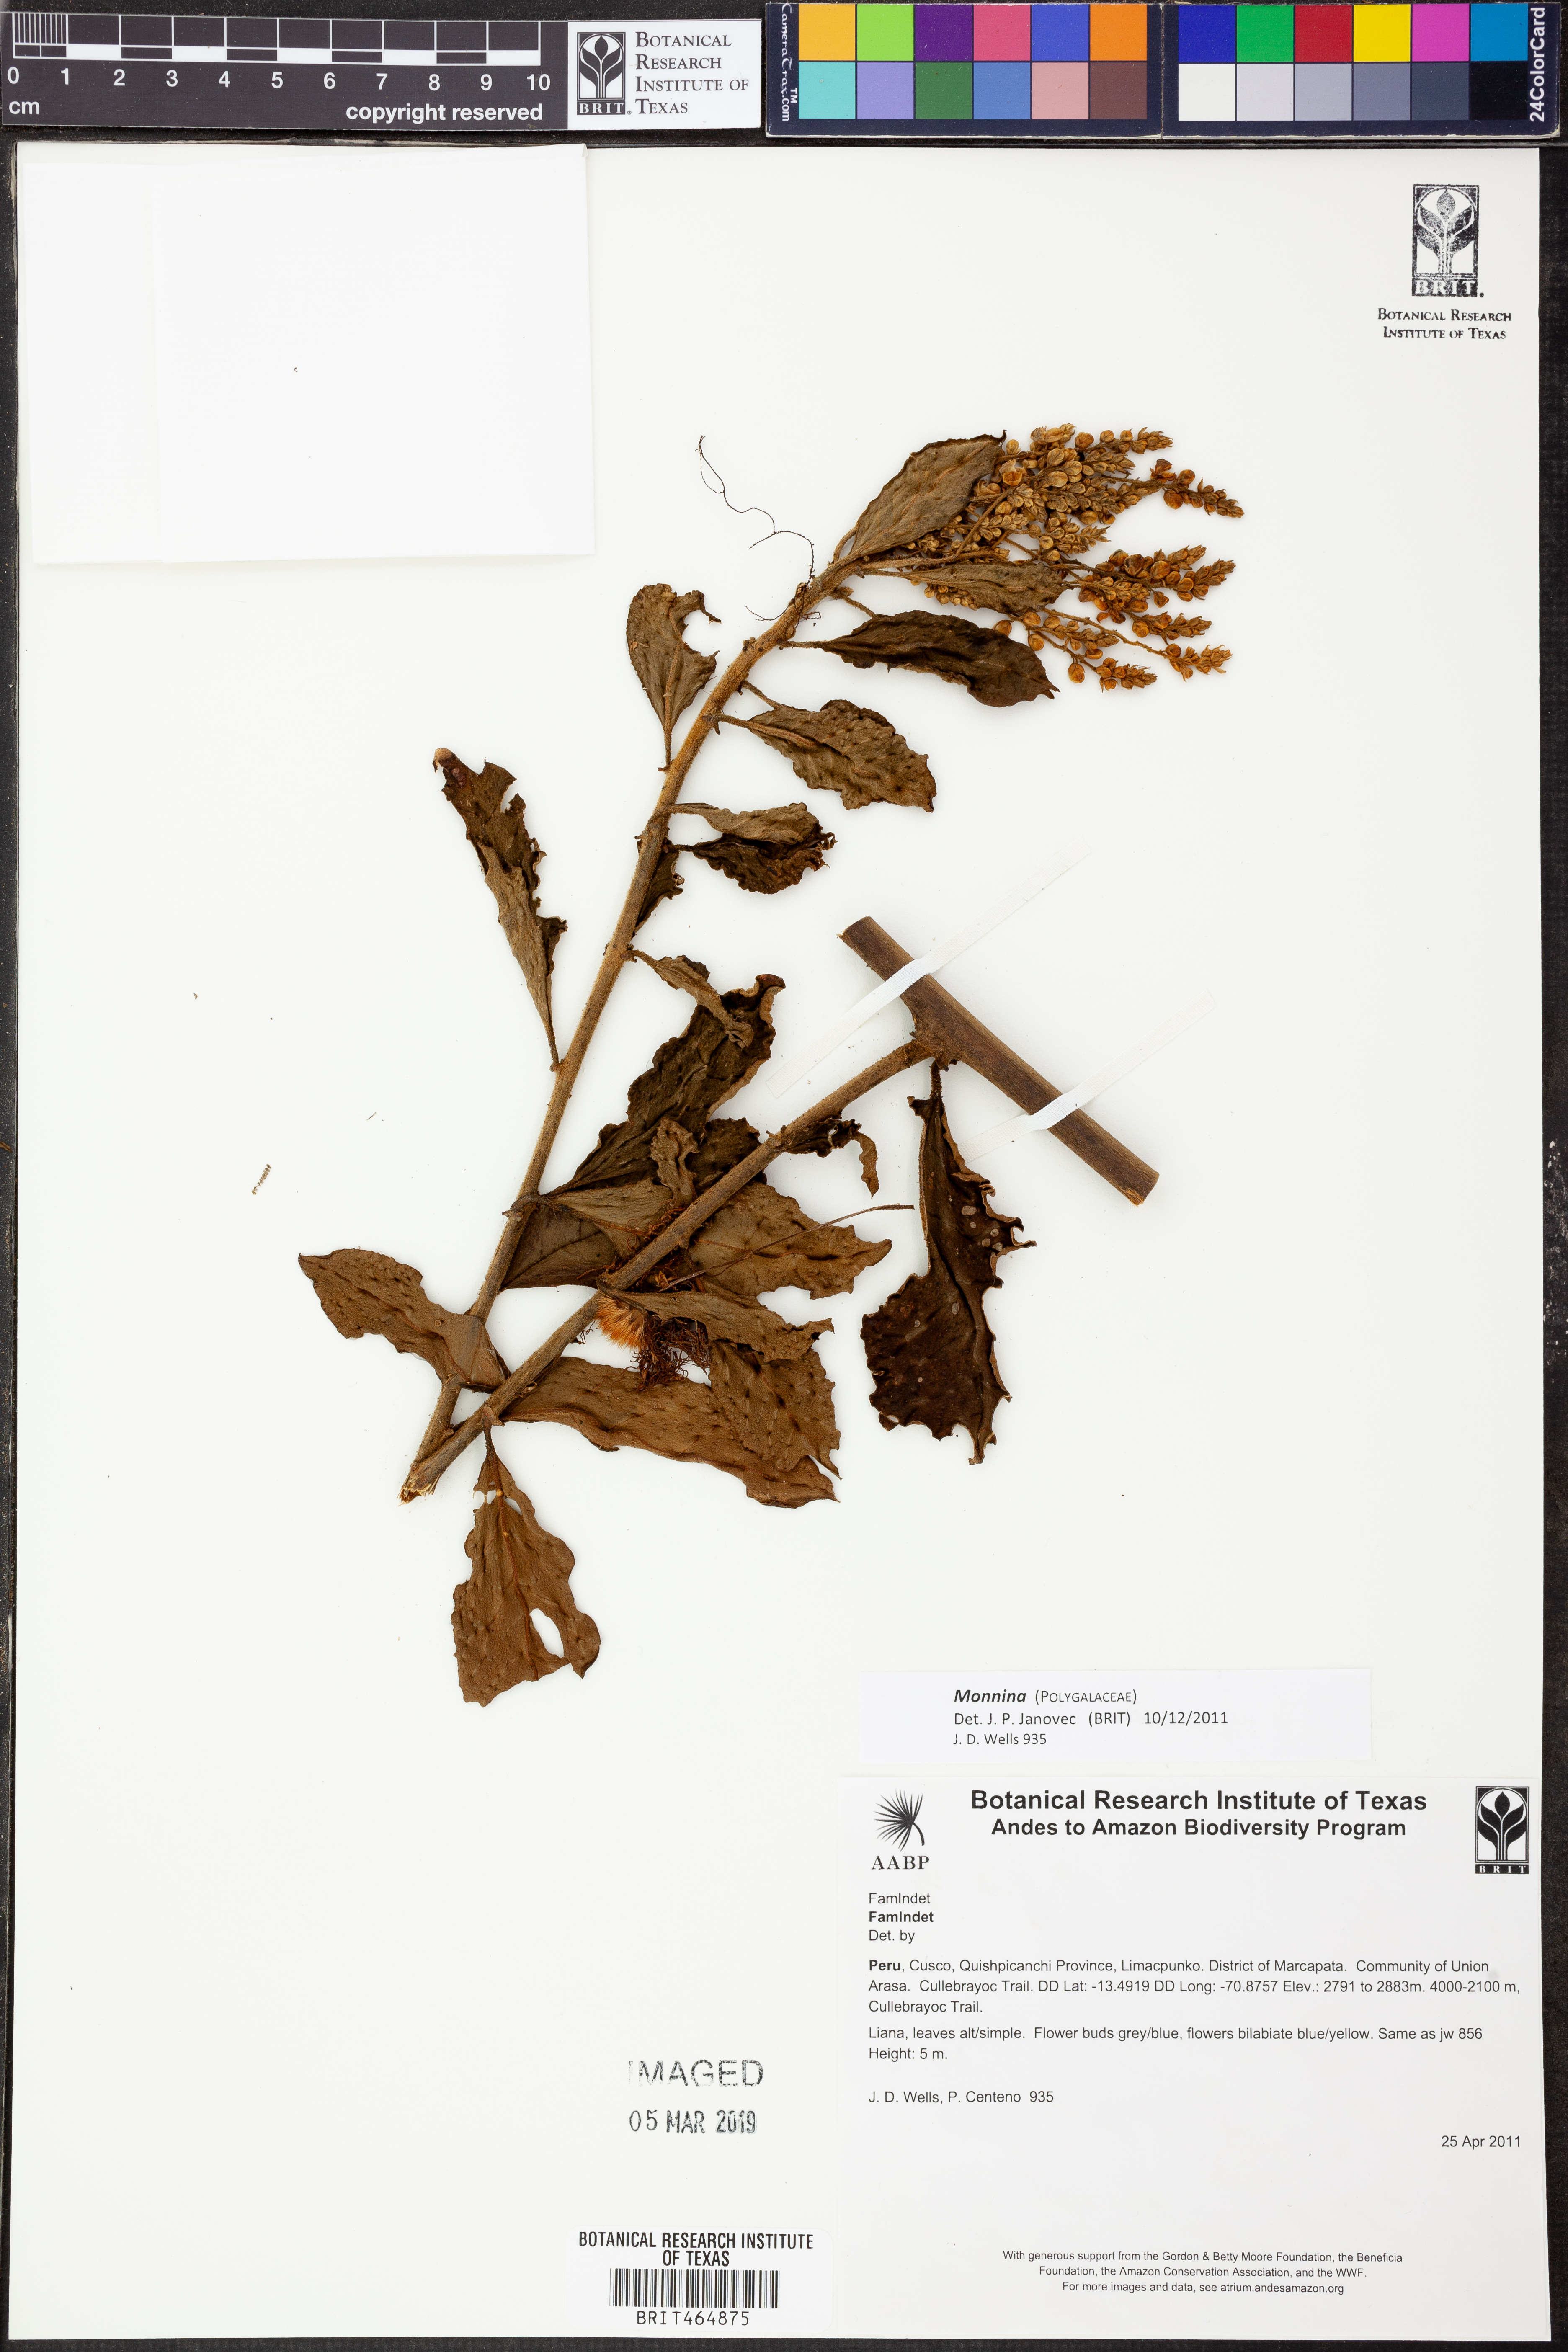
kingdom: Plantae
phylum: Tracheophyta
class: Magnoliopsida
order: Fabales
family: Polygalaceae
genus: Monnina
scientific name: Monnina
